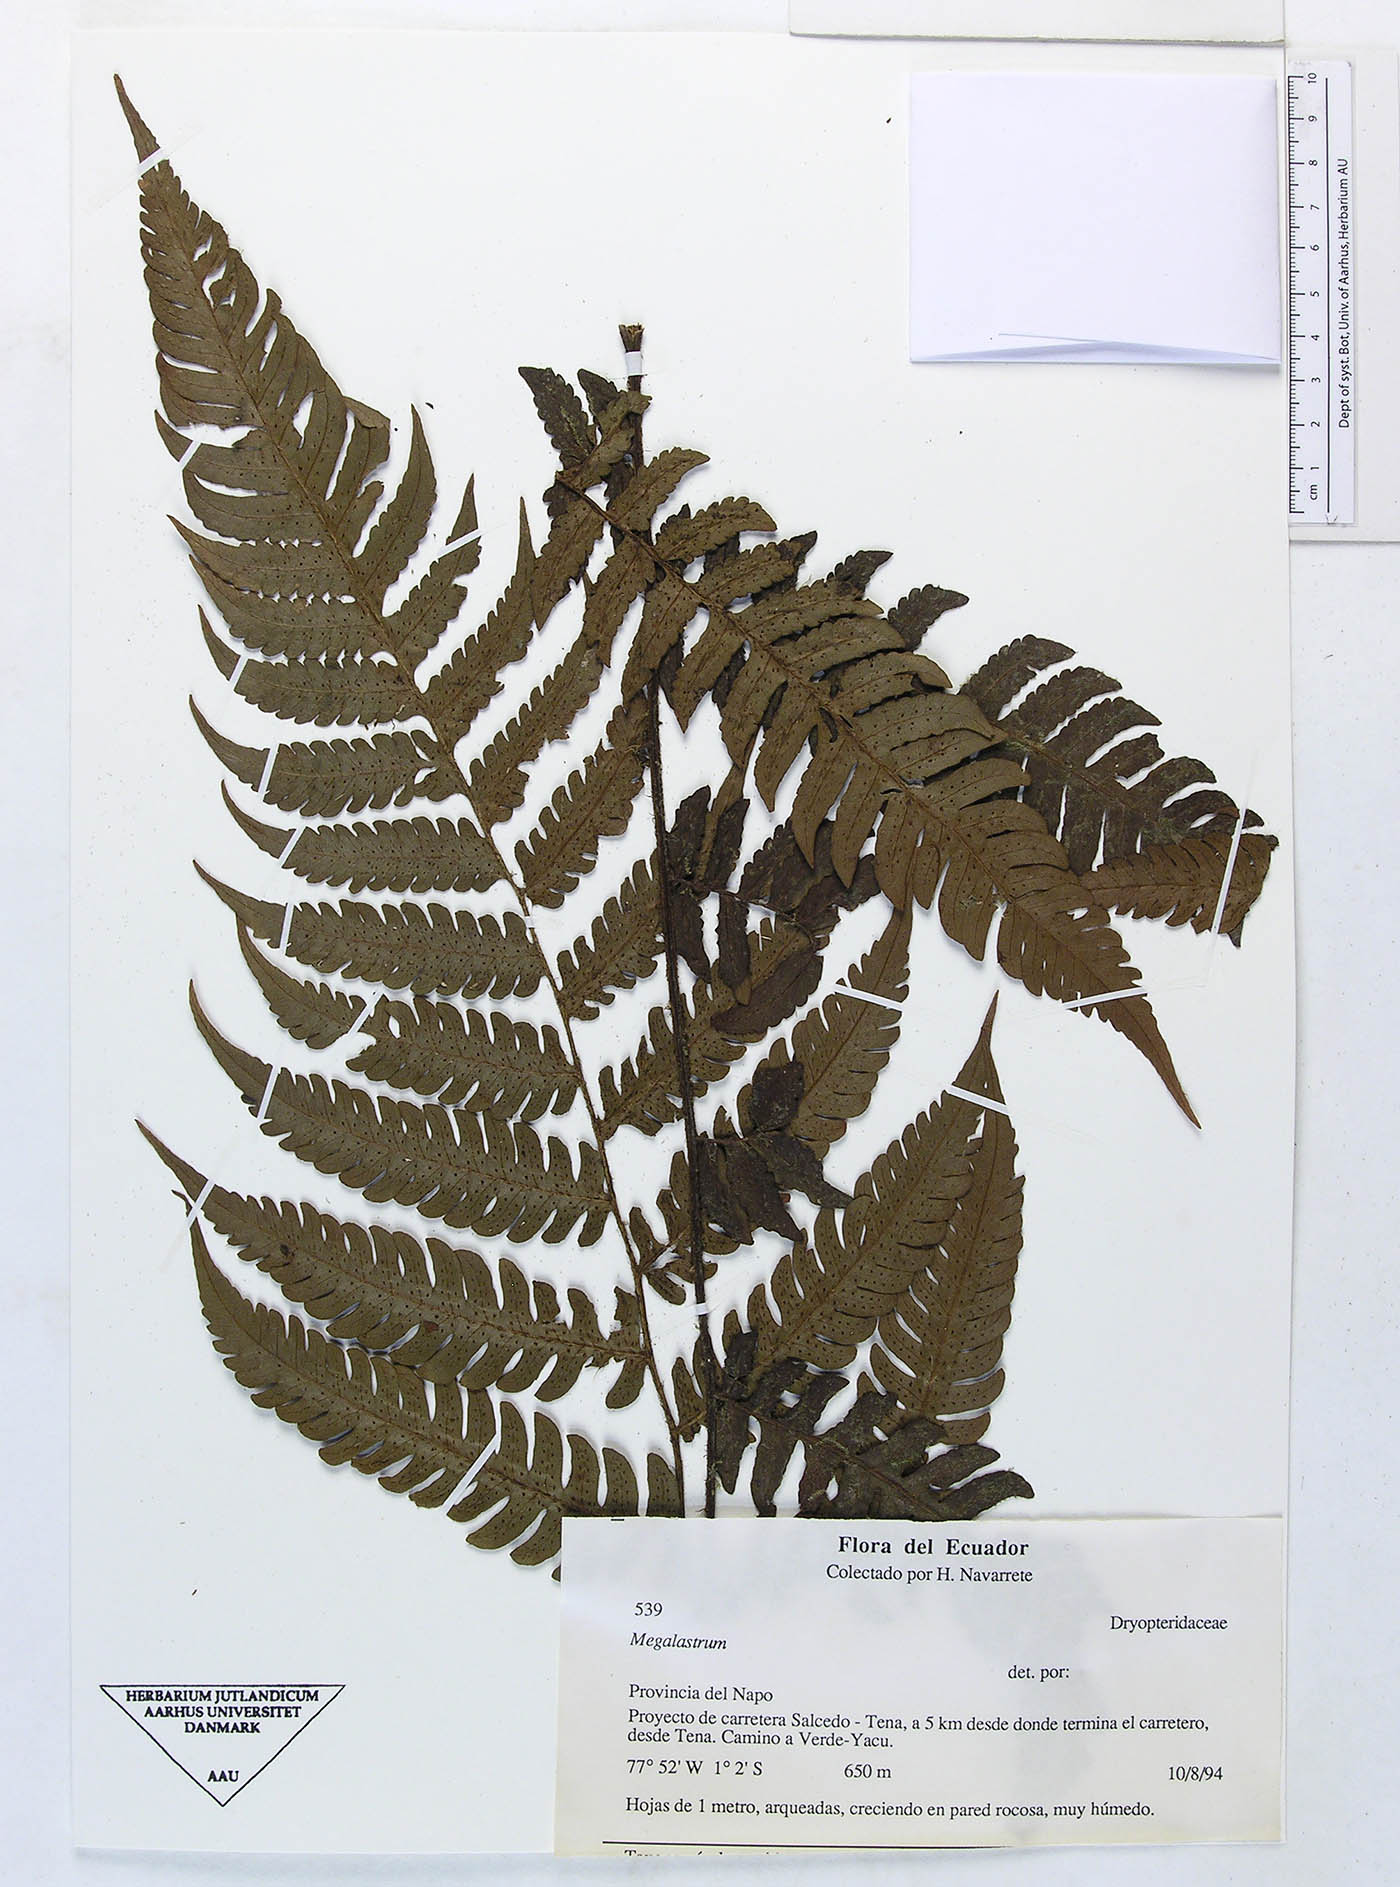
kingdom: Plantae
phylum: Tracheophyta
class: Polypodiopsida
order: Polypodiales
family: Dryopteridaceae
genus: Megalastrum
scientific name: Megalastrum polybotryoides
